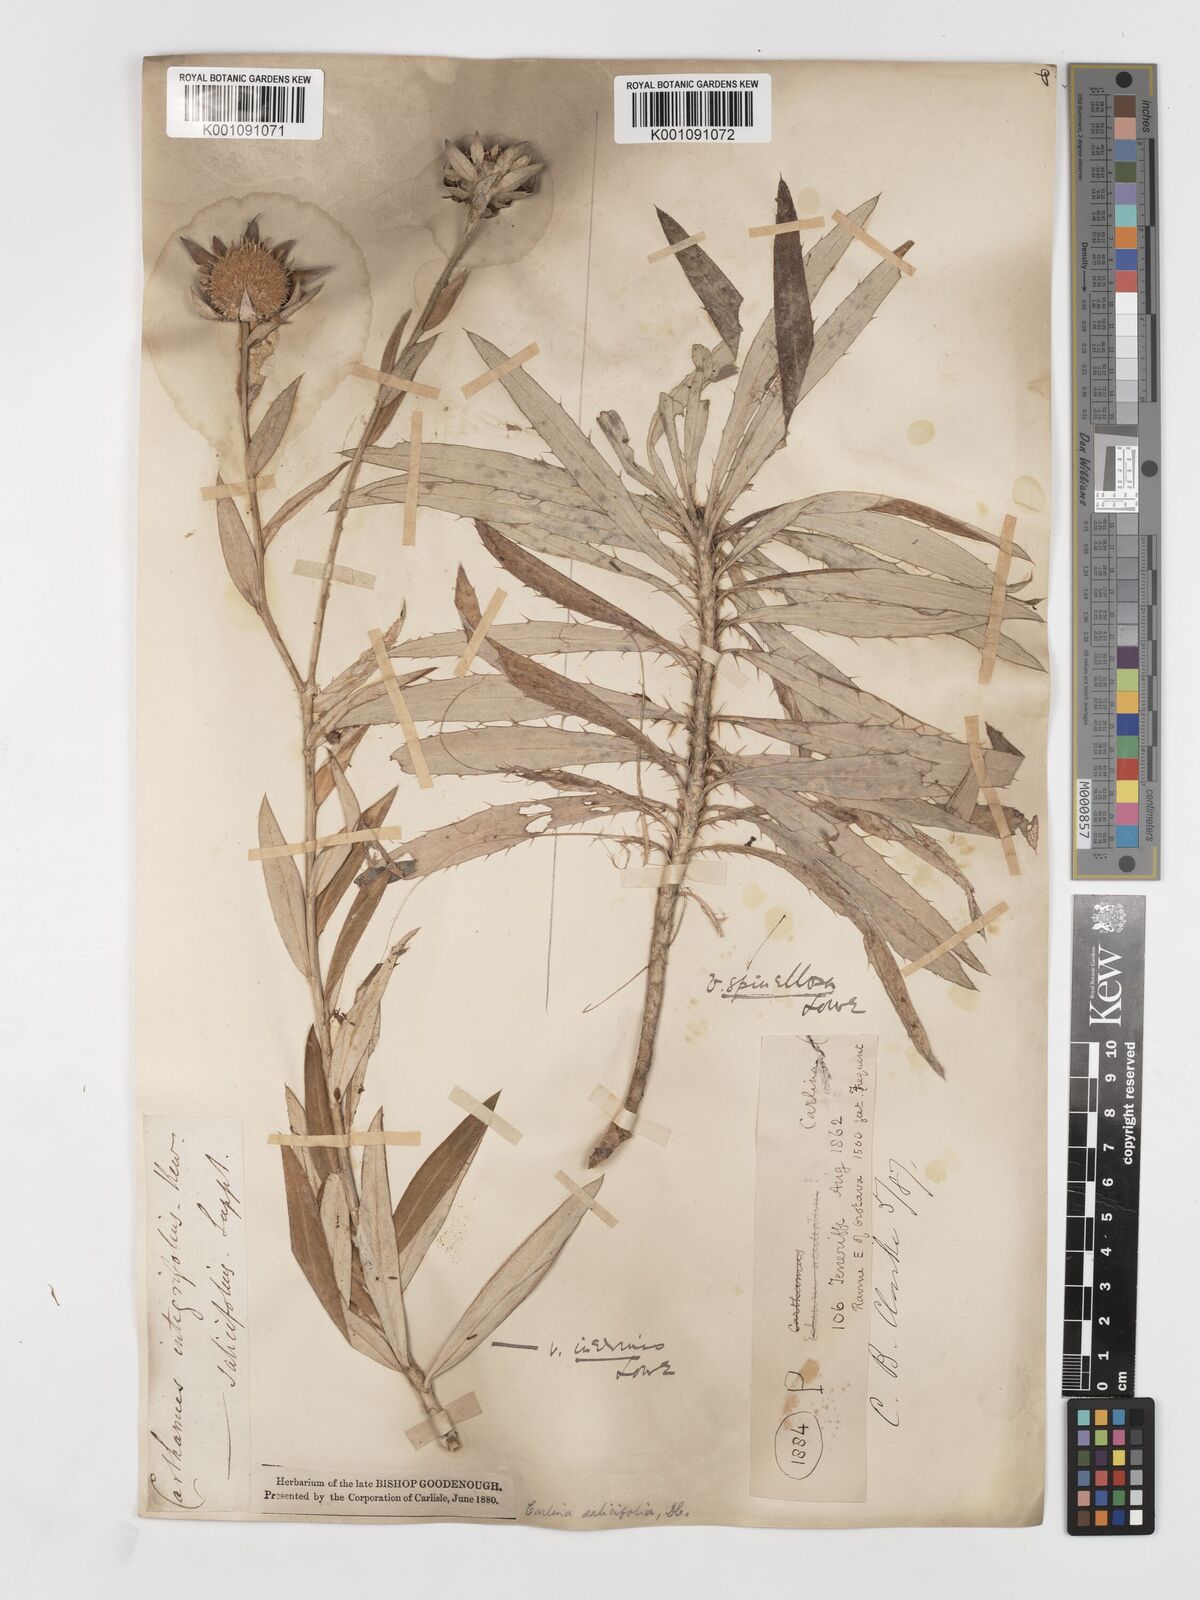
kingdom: Plantae
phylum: Tracheophyta
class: Magnoliopsida
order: Asterales
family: Asteraceae
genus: Carlina
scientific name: Carlina salicifolia
